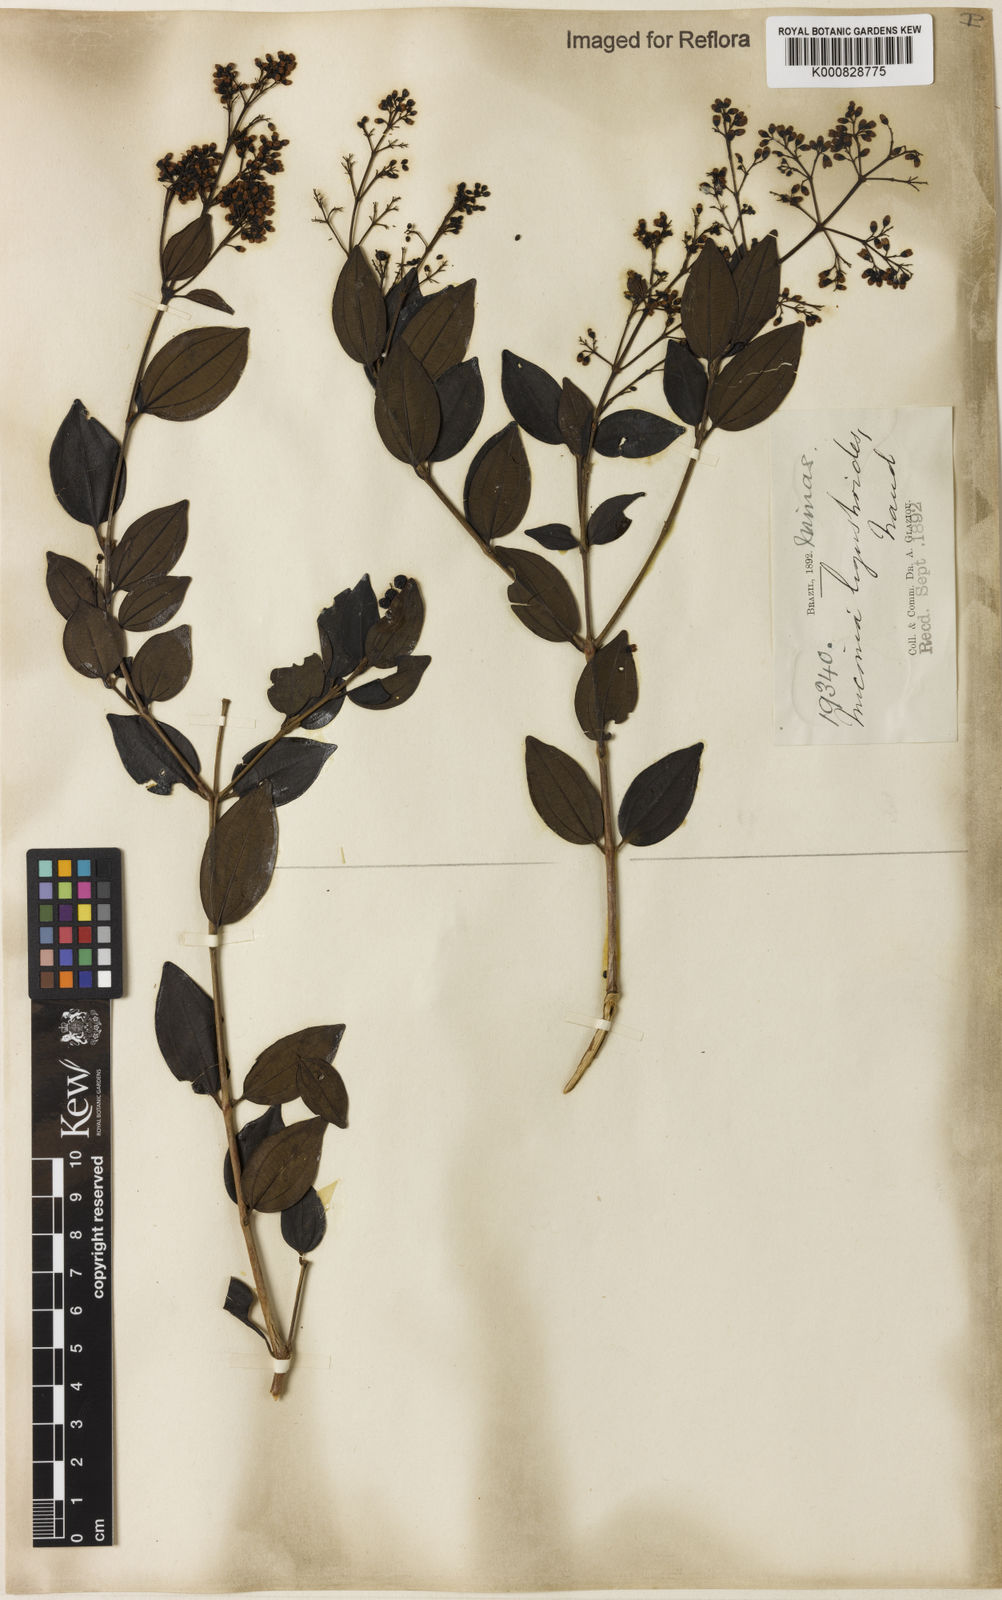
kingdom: Plantae
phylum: Tracheophyta
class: Magnoliopsida
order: Myrtales
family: Melastomataceae
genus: Miconia
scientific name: Miconia ligustroides
